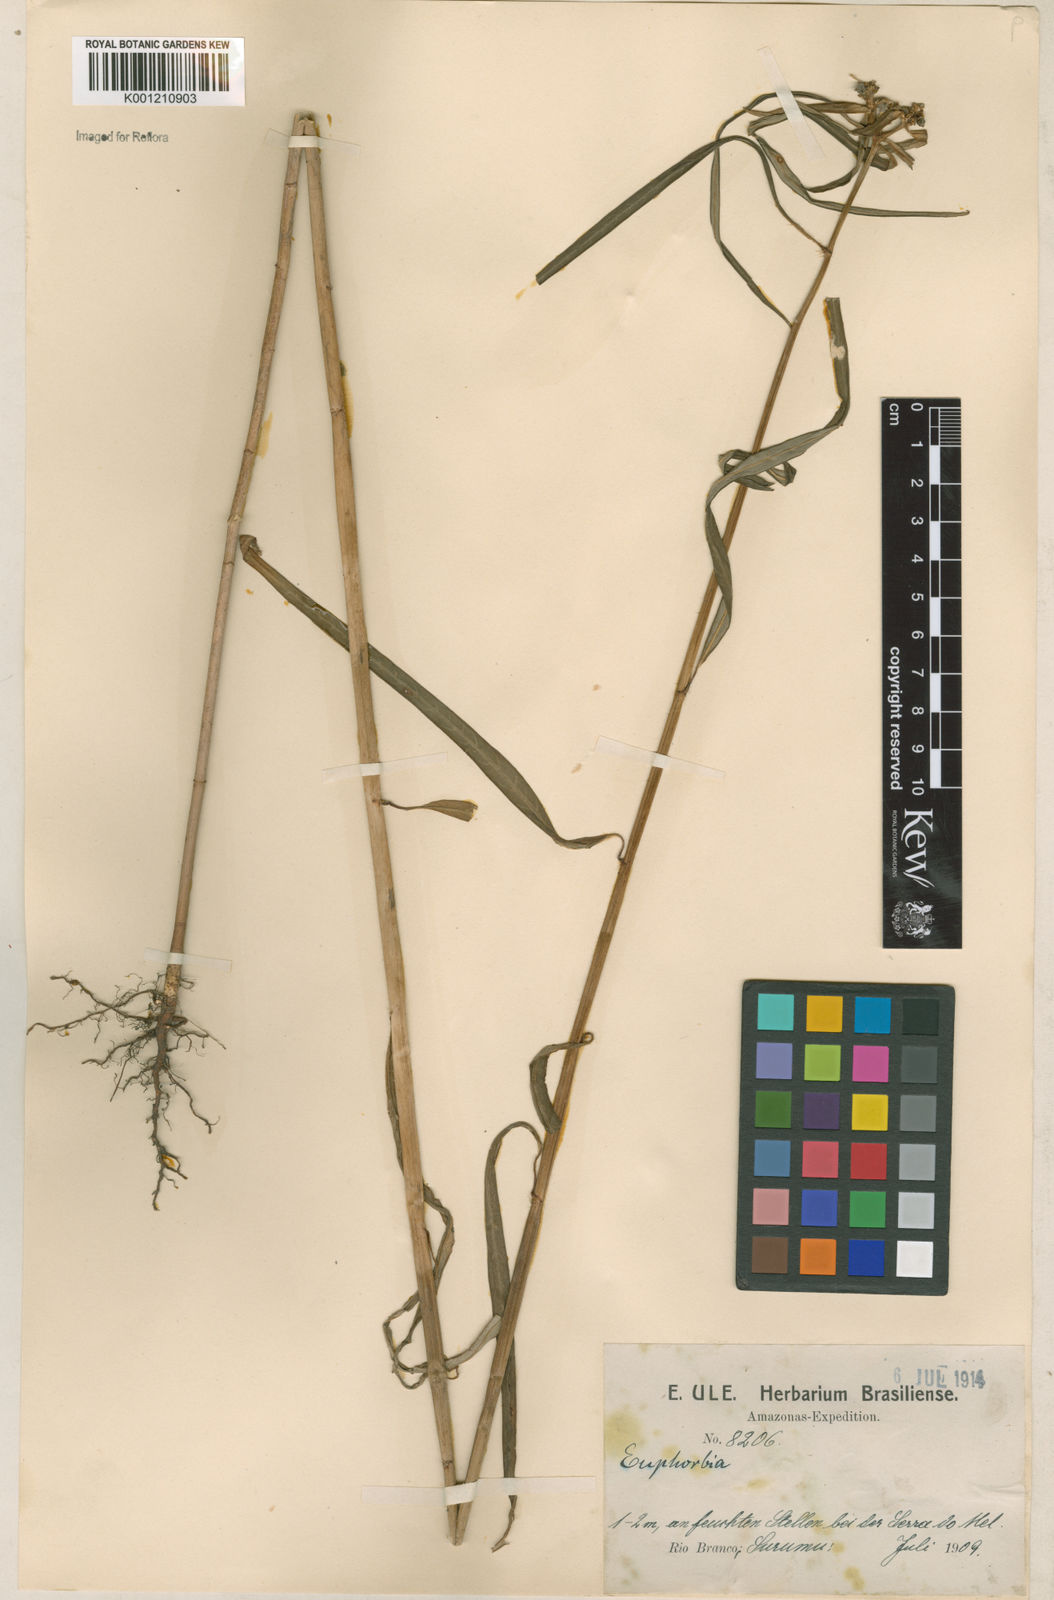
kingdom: Plantae
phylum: Tracheophyta
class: Magnoliopsida
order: Malpighiales
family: Euphorbiaceae
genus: Euphorbia
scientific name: Euphorbia heterophylla
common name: Mexican fireplant
